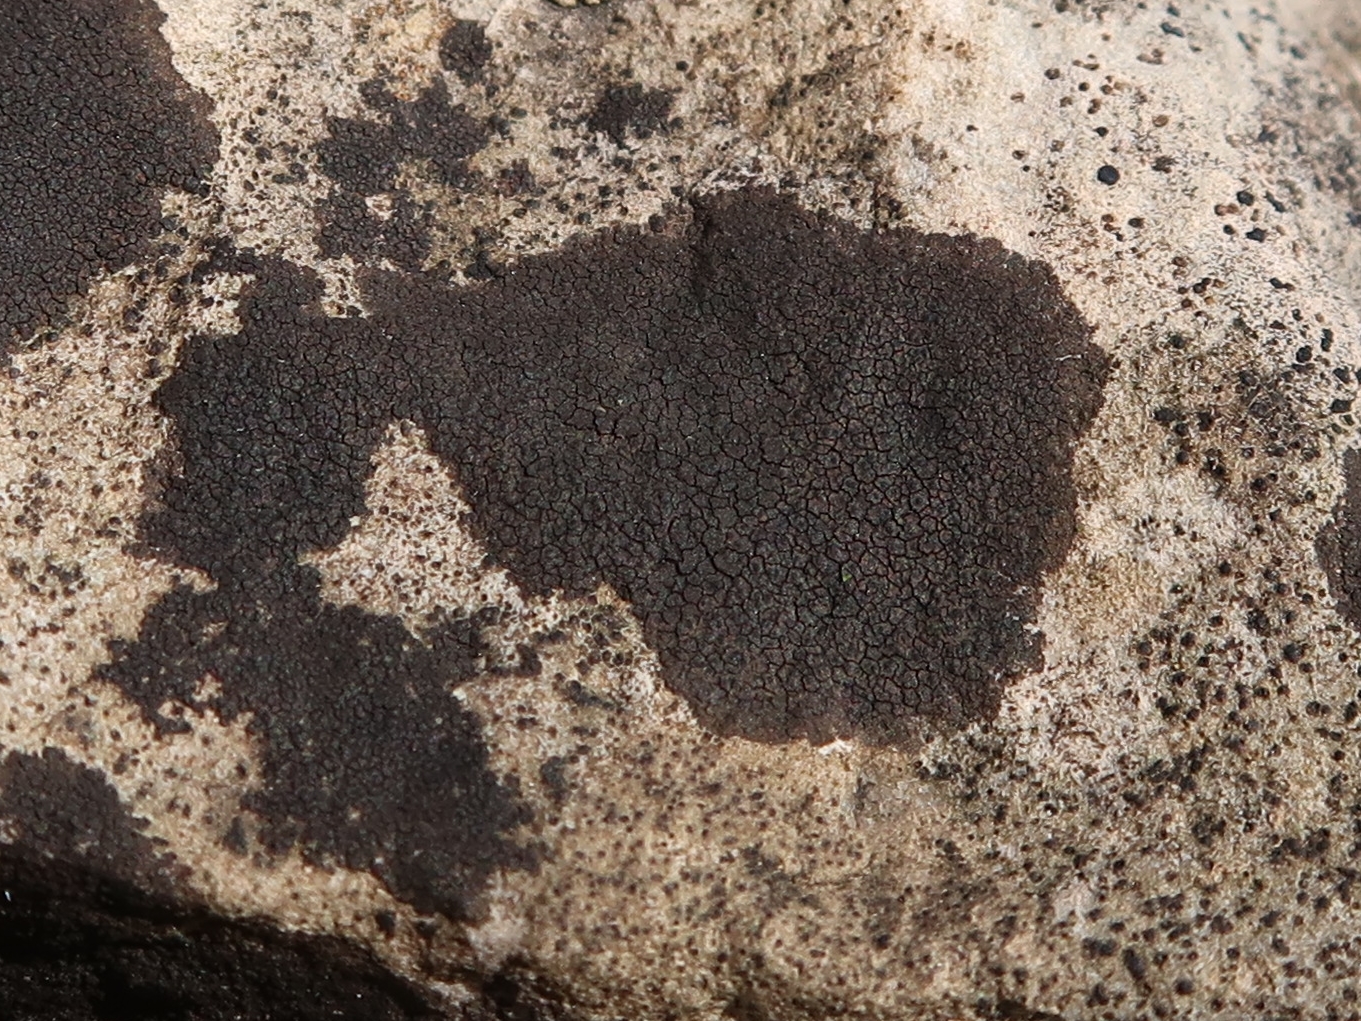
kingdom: Fungi
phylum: Ascomycota
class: Eurotiomycetes
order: Verrucariales
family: Verrucariaceae
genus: Verrucaria
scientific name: Verrucaria nigrescens
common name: sortbrun vortelav
